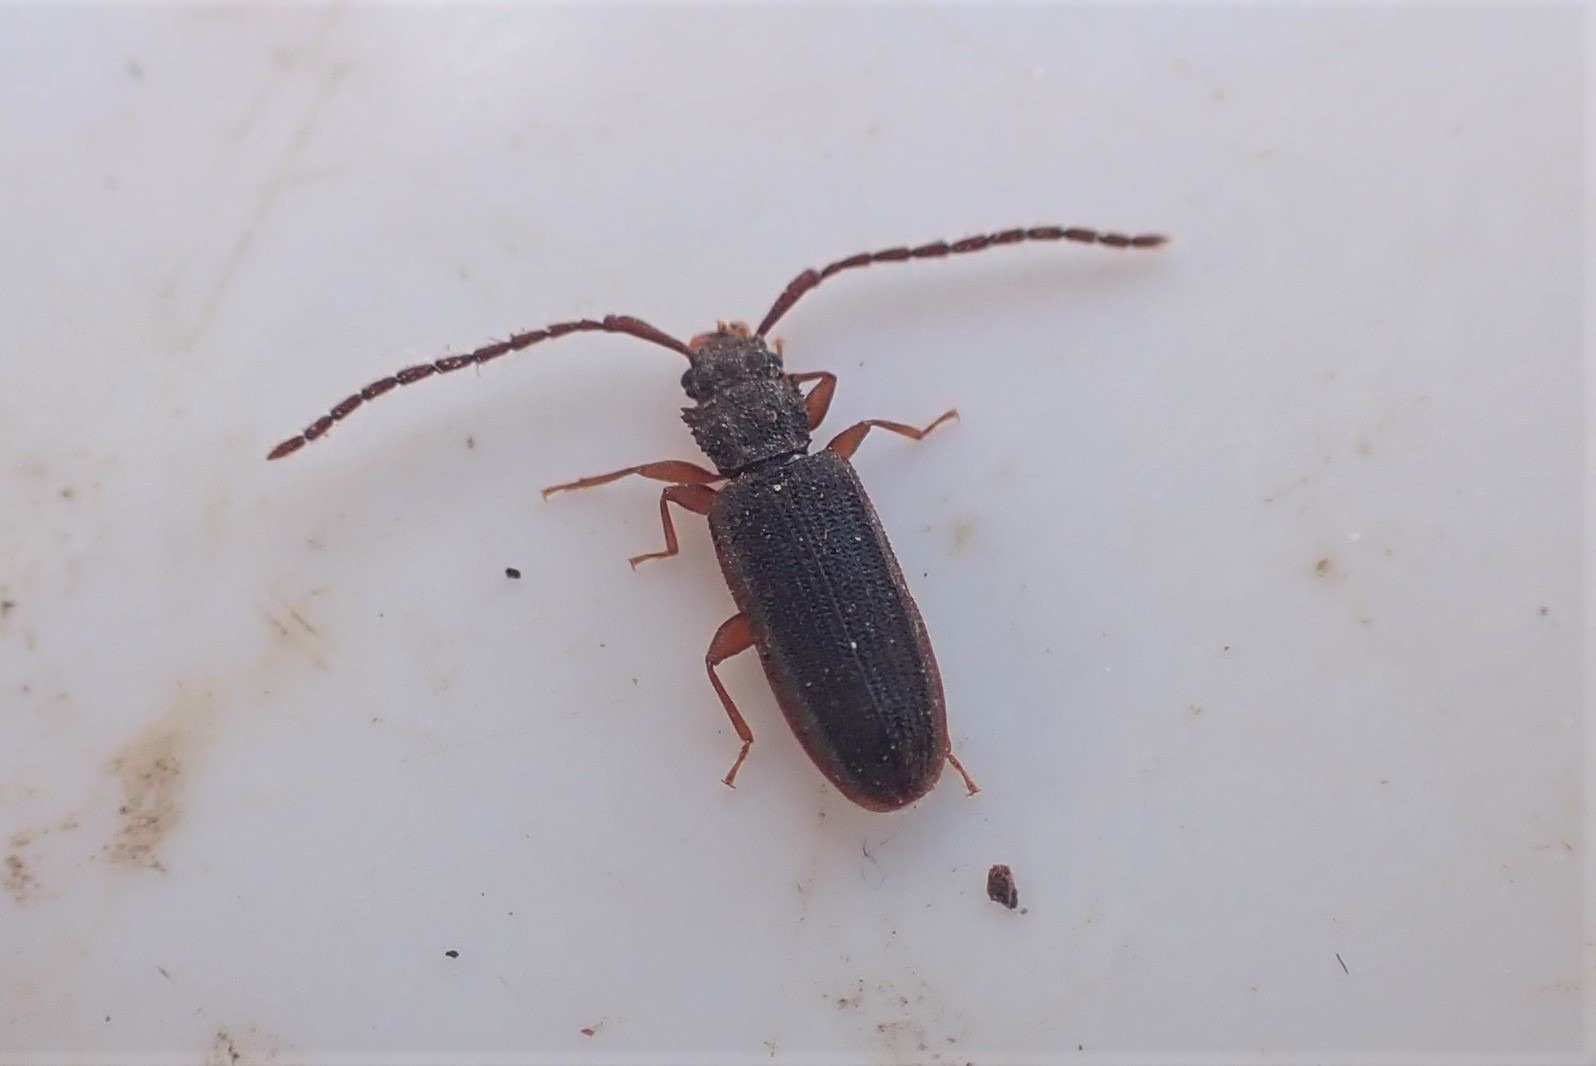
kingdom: Animalia
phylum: Arthropoda
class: Insecta
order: Coleoptera
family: Silvanidae
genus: Uleiota
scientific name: Uleiota planatus
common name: Langhornet fladbille
